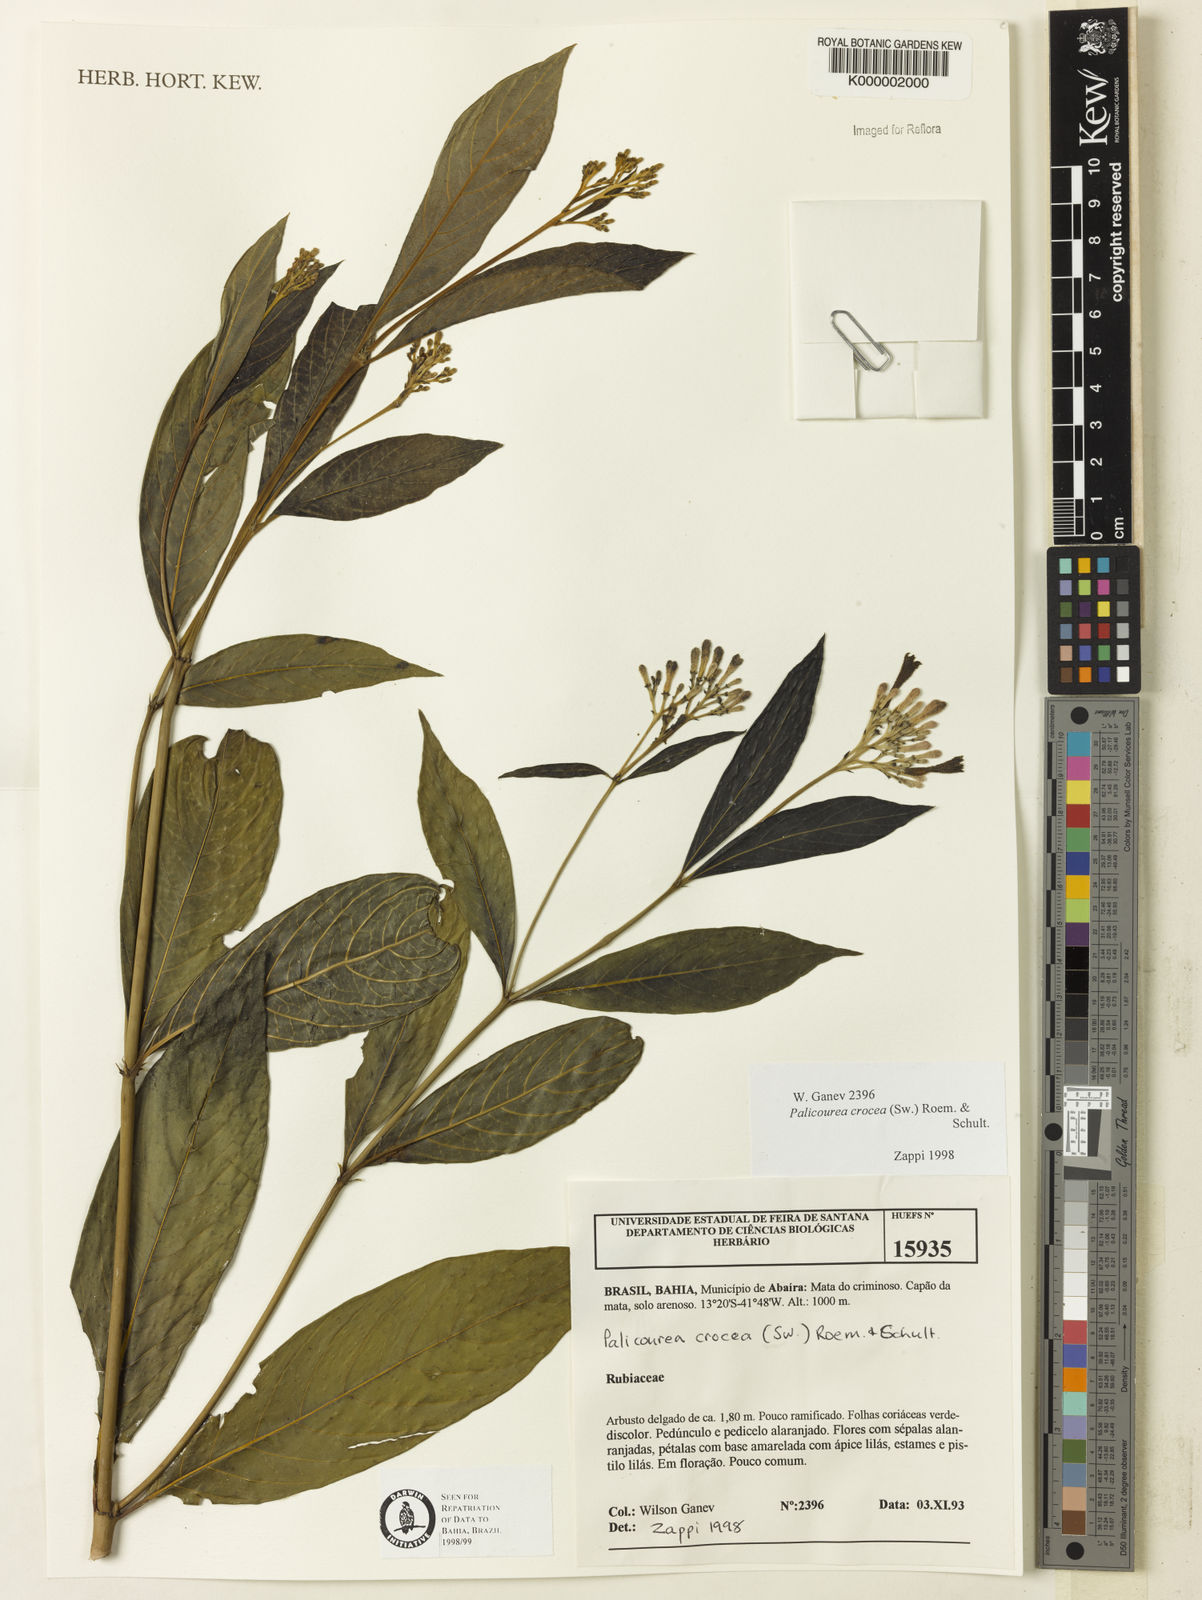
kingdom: Plantae
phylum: Tracheophyta
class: Magnoliopsida
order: Gentianales
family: Rubiaceae
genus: Palicourea
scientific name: Palicourea marcgravii
